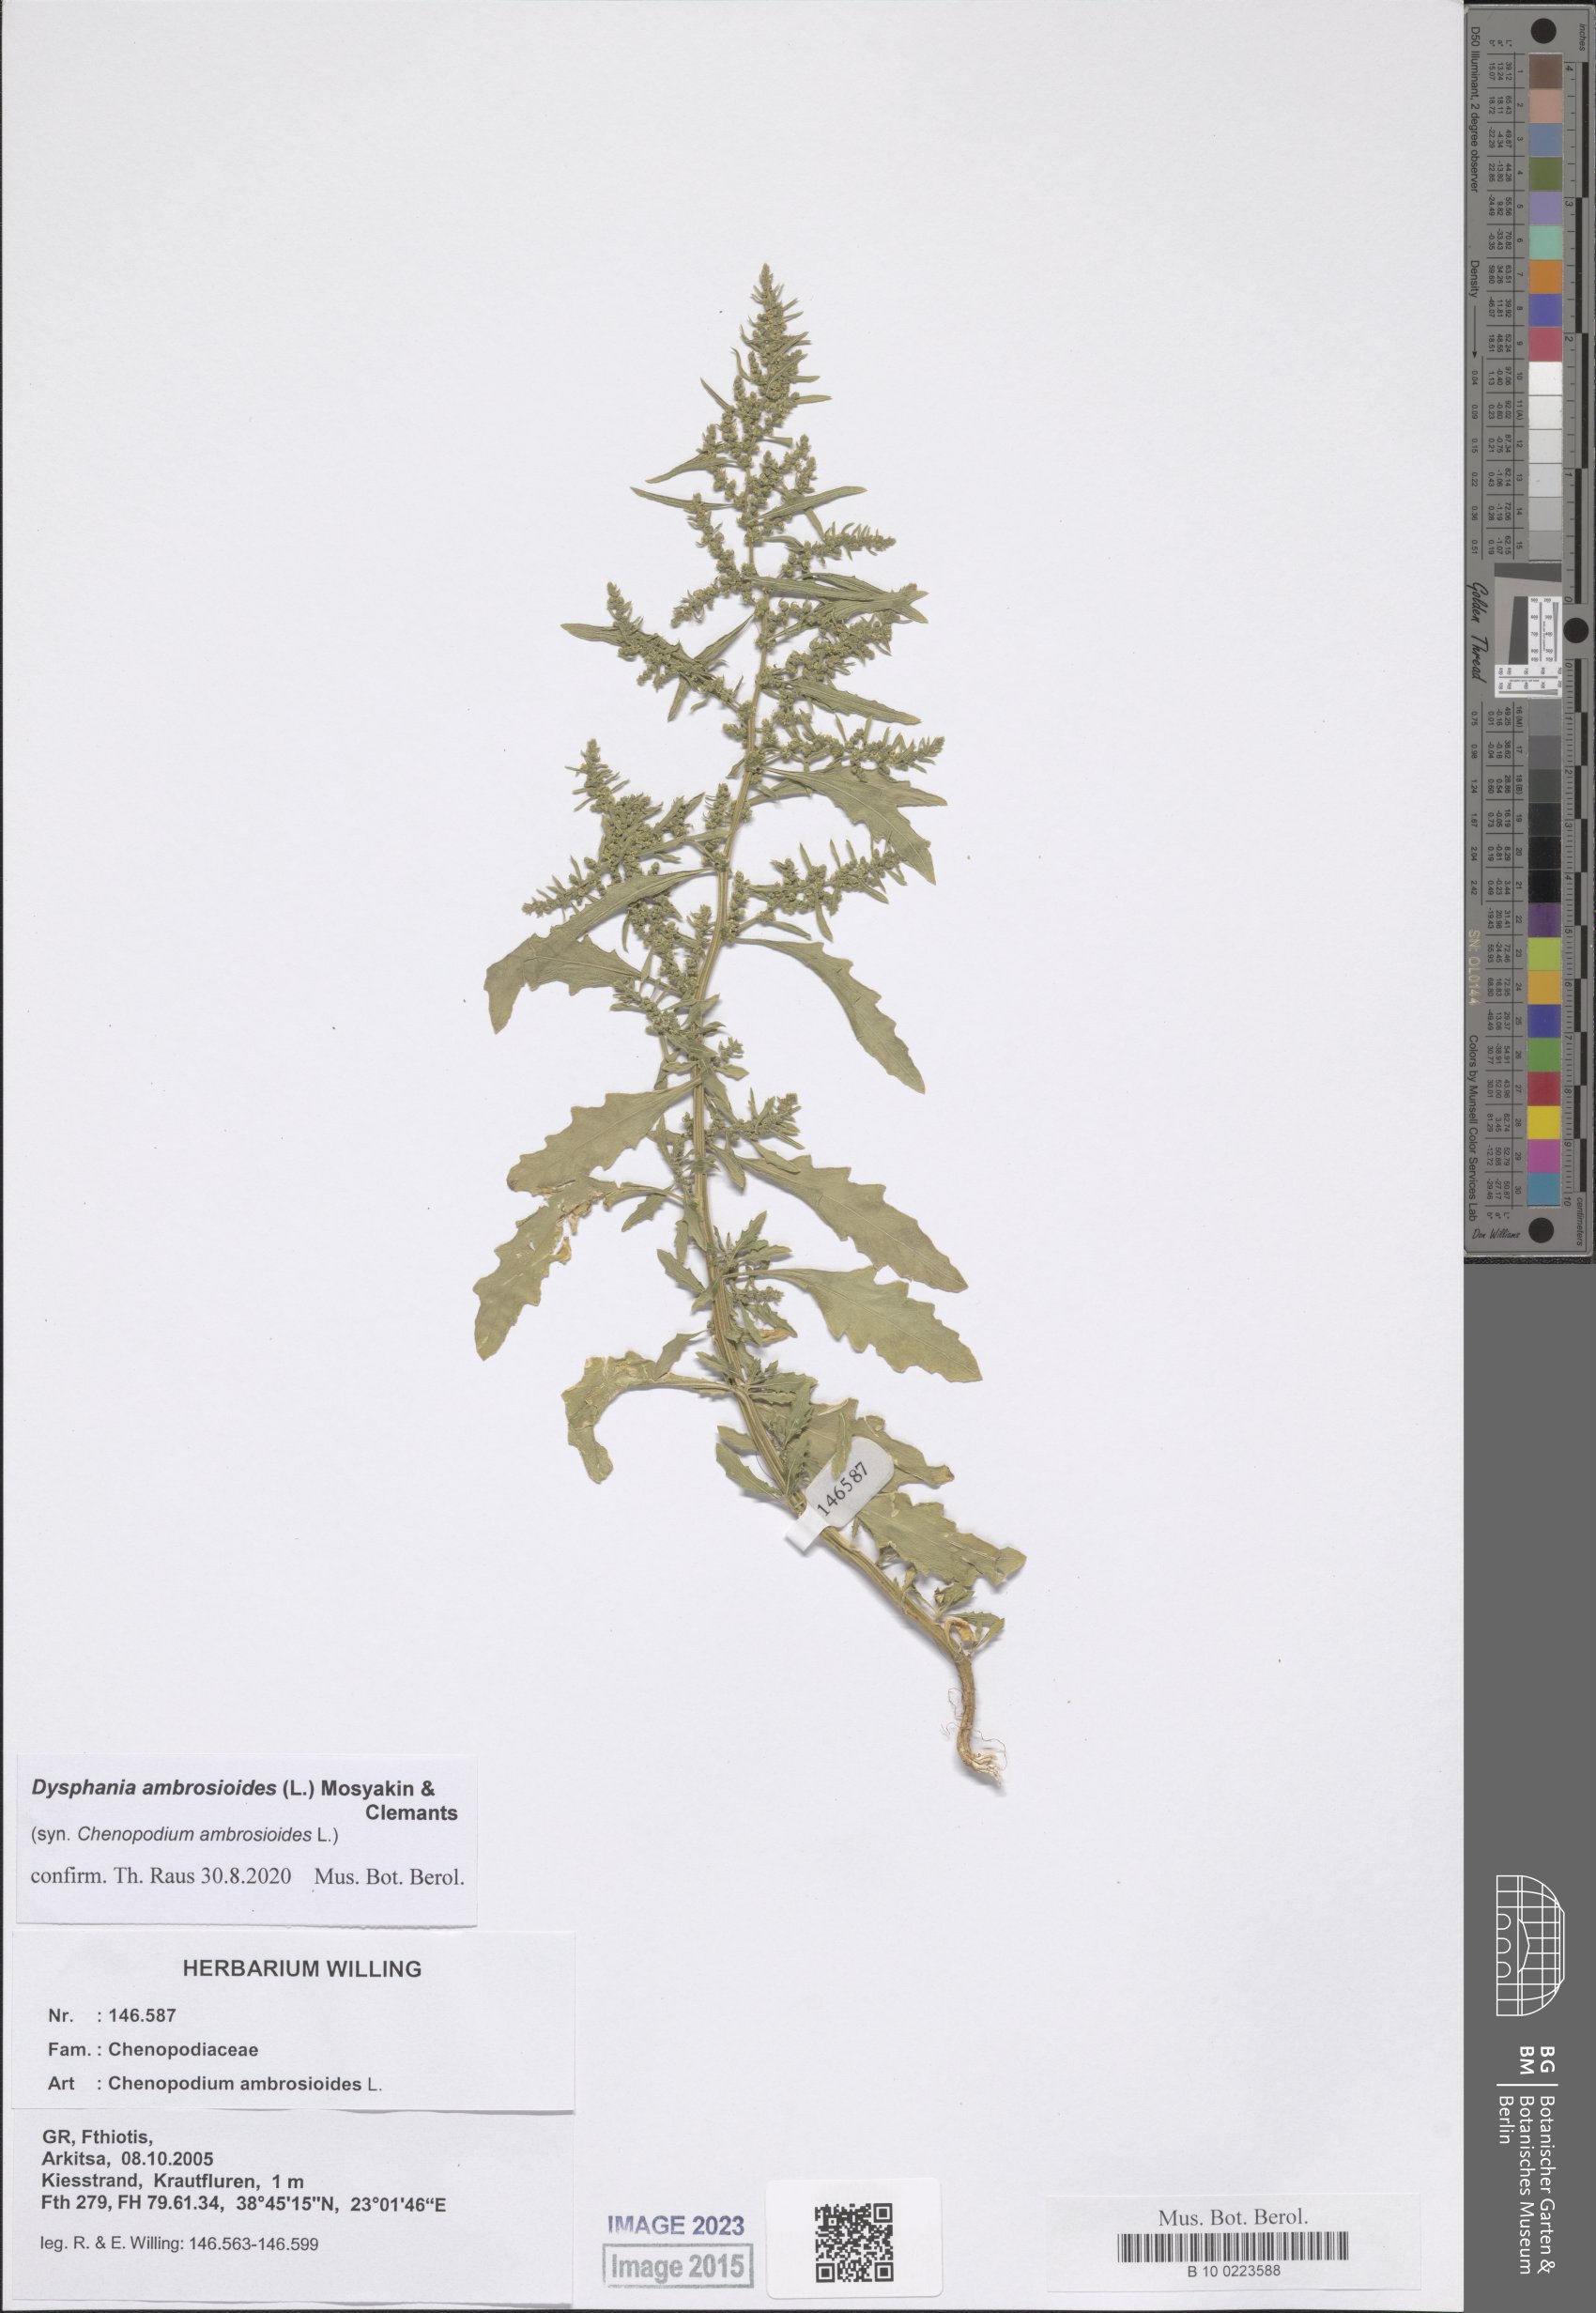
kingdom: Plantae
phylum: Tracheophyta
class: Magnoliopsida
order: Caryophyllales
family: Amaranthaceae
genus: Dysphania
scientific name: Dysphania ambrosioides
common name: Wormseed
